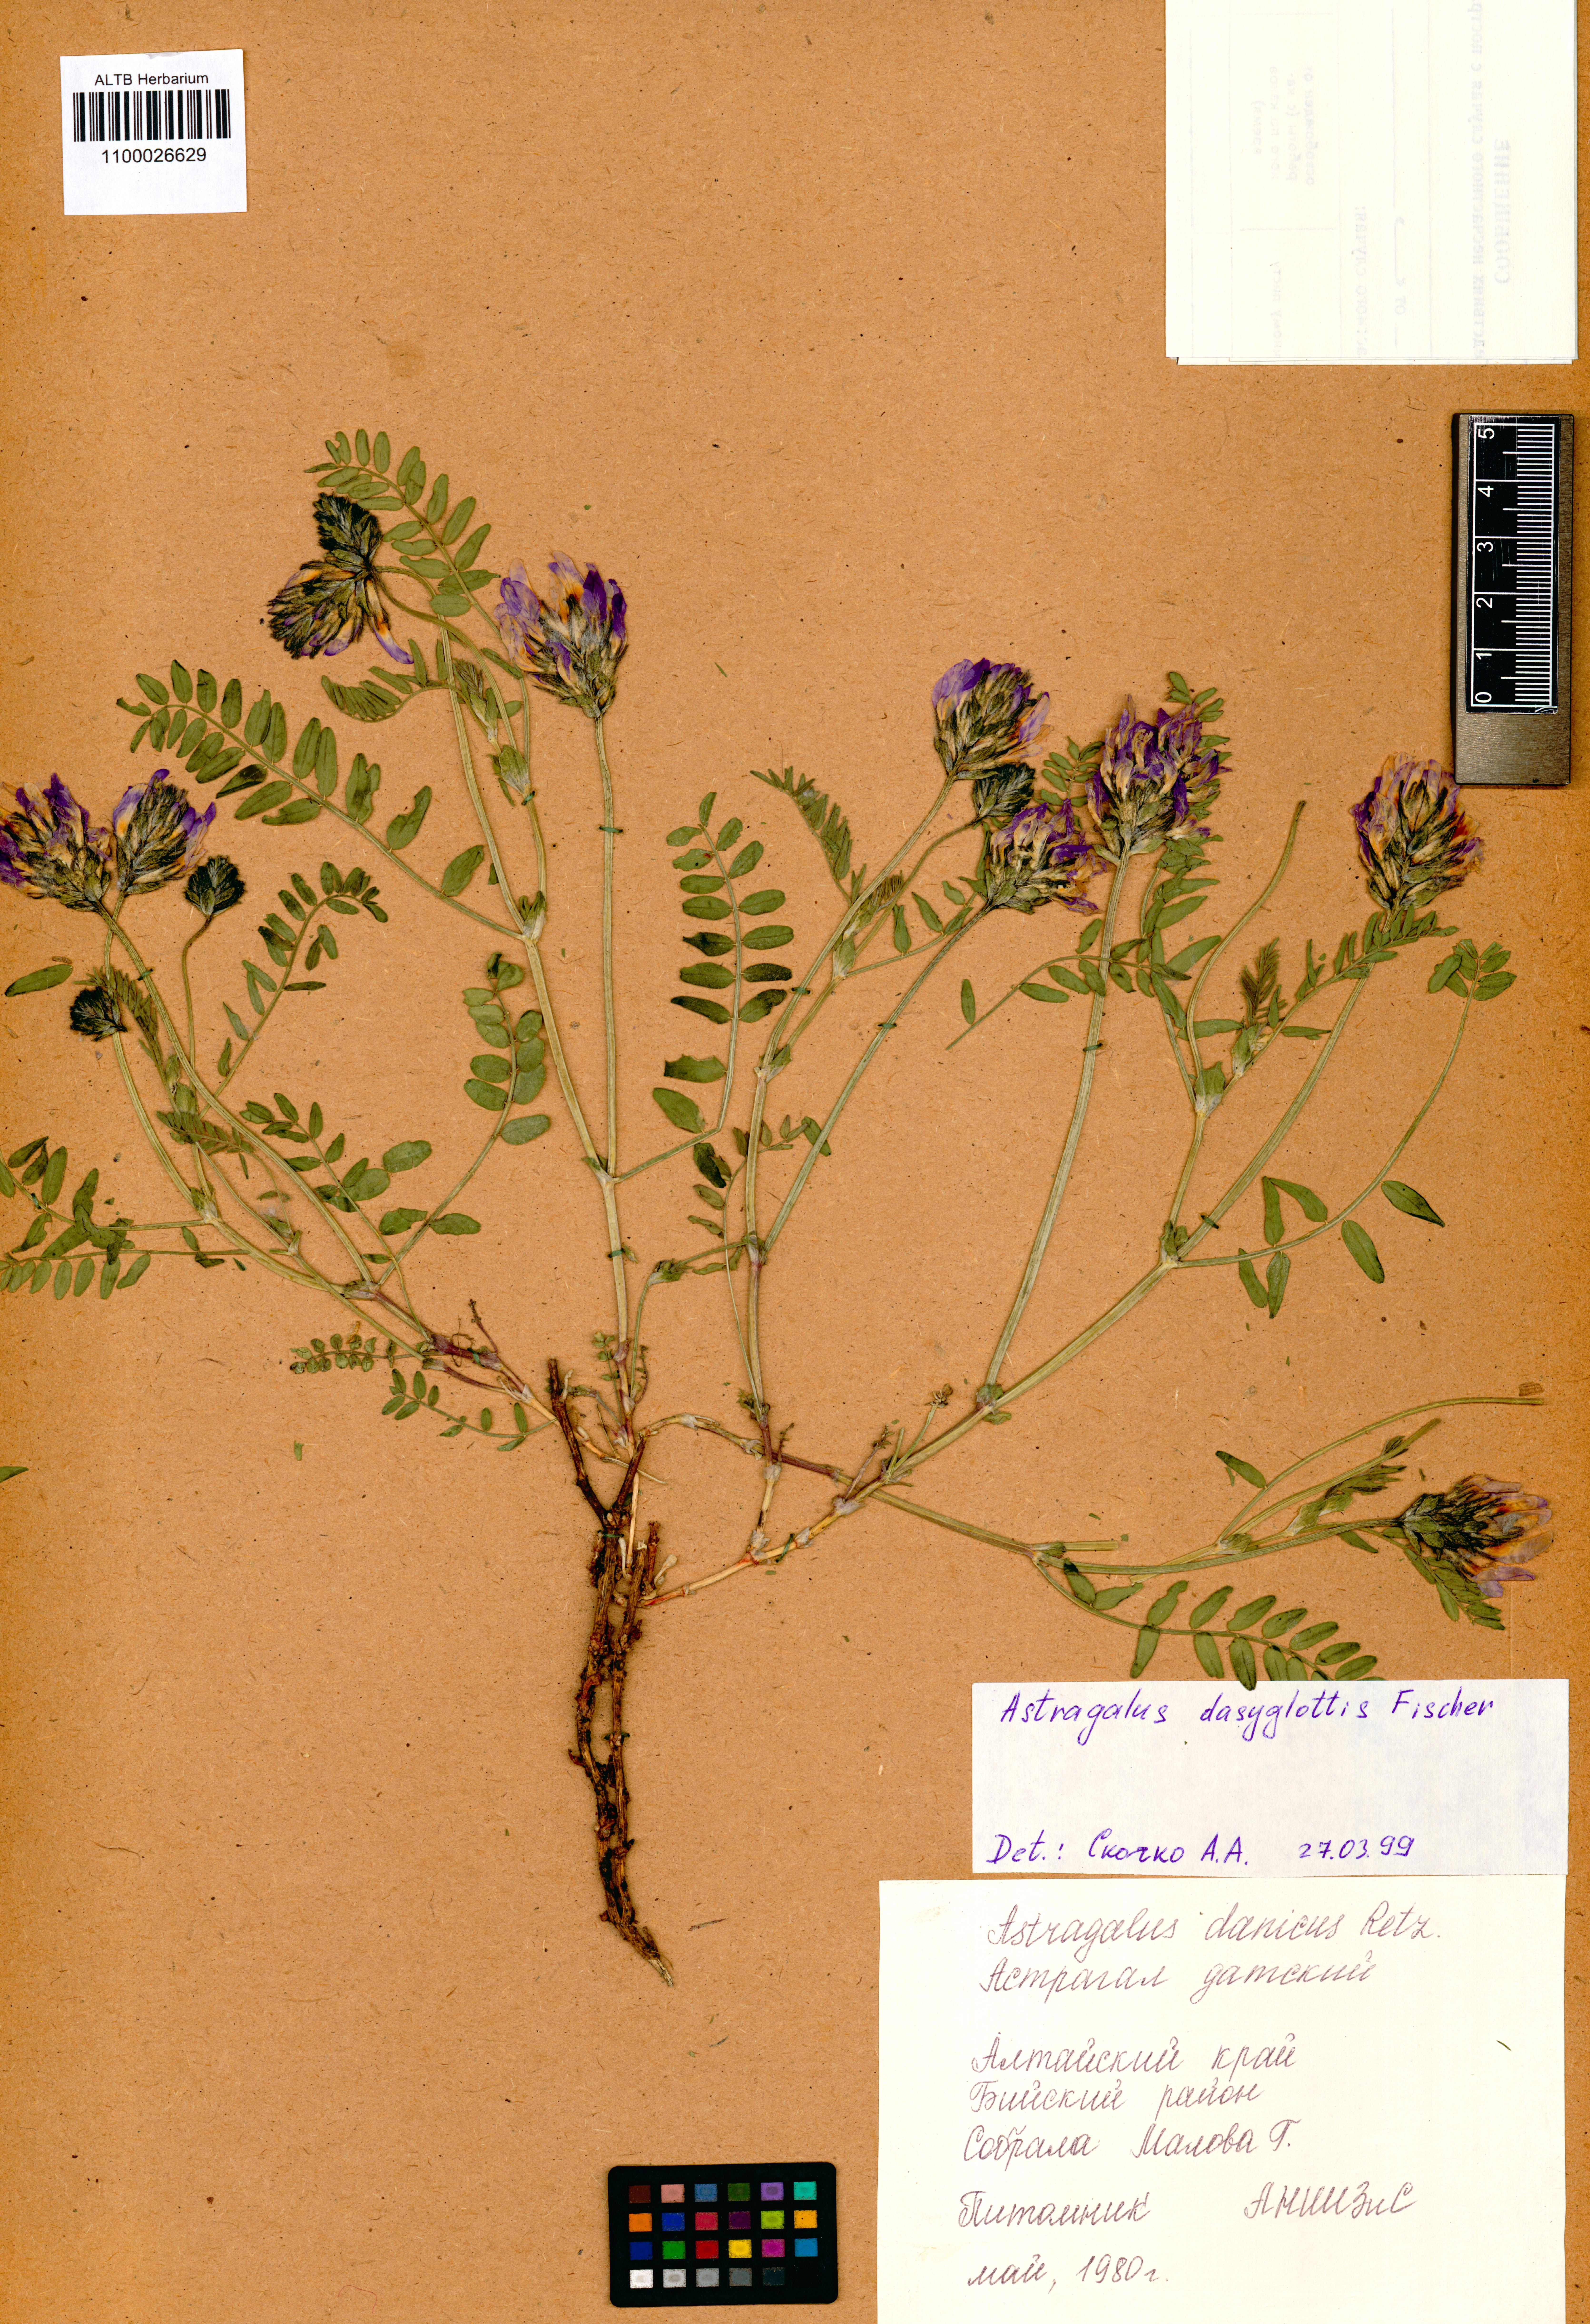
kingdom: Plantae
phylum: Tracheophyta
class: Magnoliopsida
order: Fabales
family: Fabaceae
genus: Astragalus
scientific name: Astragalus agrestis
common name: Field milk-vetch
